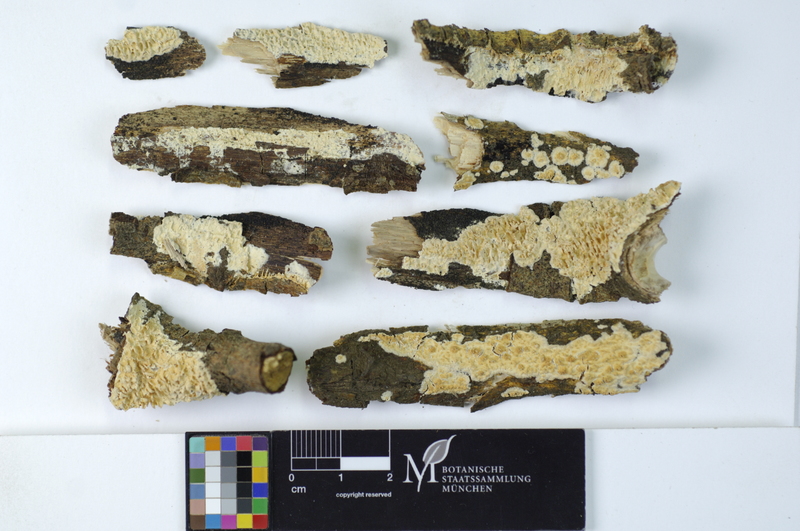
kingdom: Plantae
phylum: Tracheophyta
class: Magnoliopsida
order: Malpighiales
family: Salicaceae
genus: Salix
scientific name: Salix caprea
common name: Goat willow
